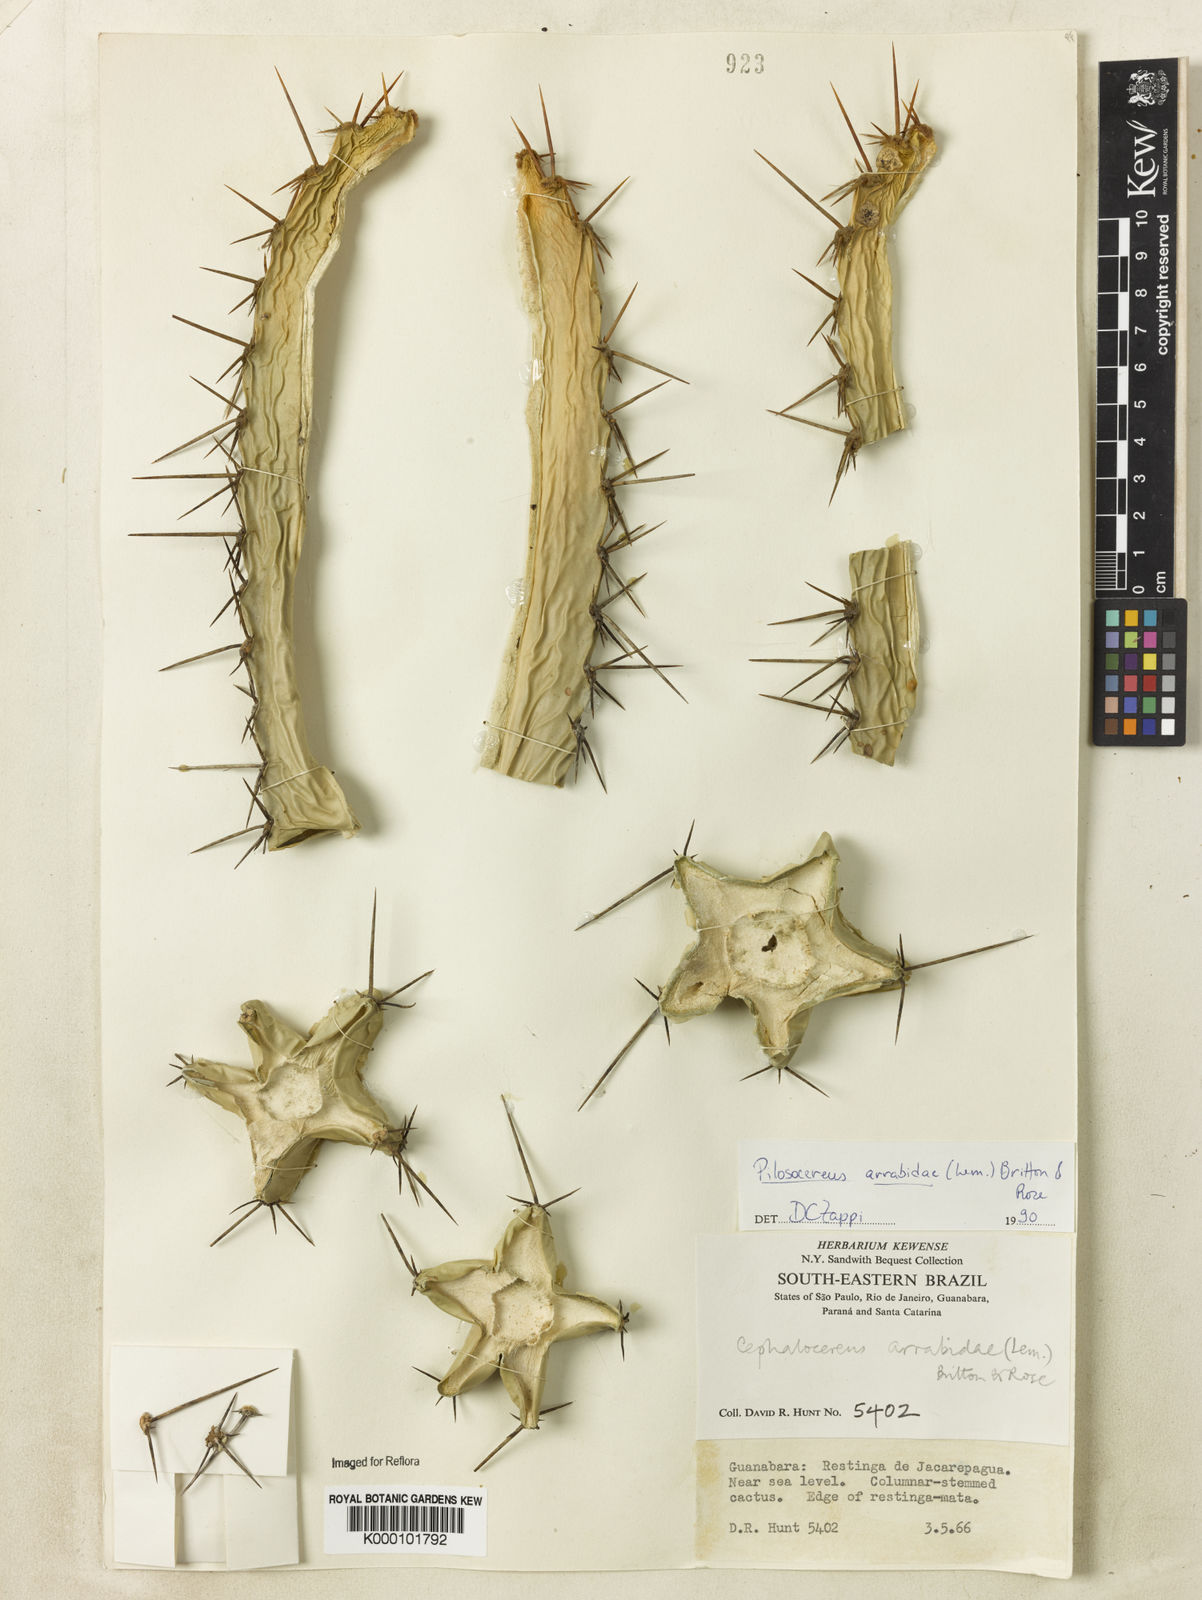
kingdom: Plantae
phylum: Tracheophyta
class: Magnoliopsida
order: Caryophyllales
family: Cactaceae
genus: Pilosocereus
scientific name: Pilosocereus
